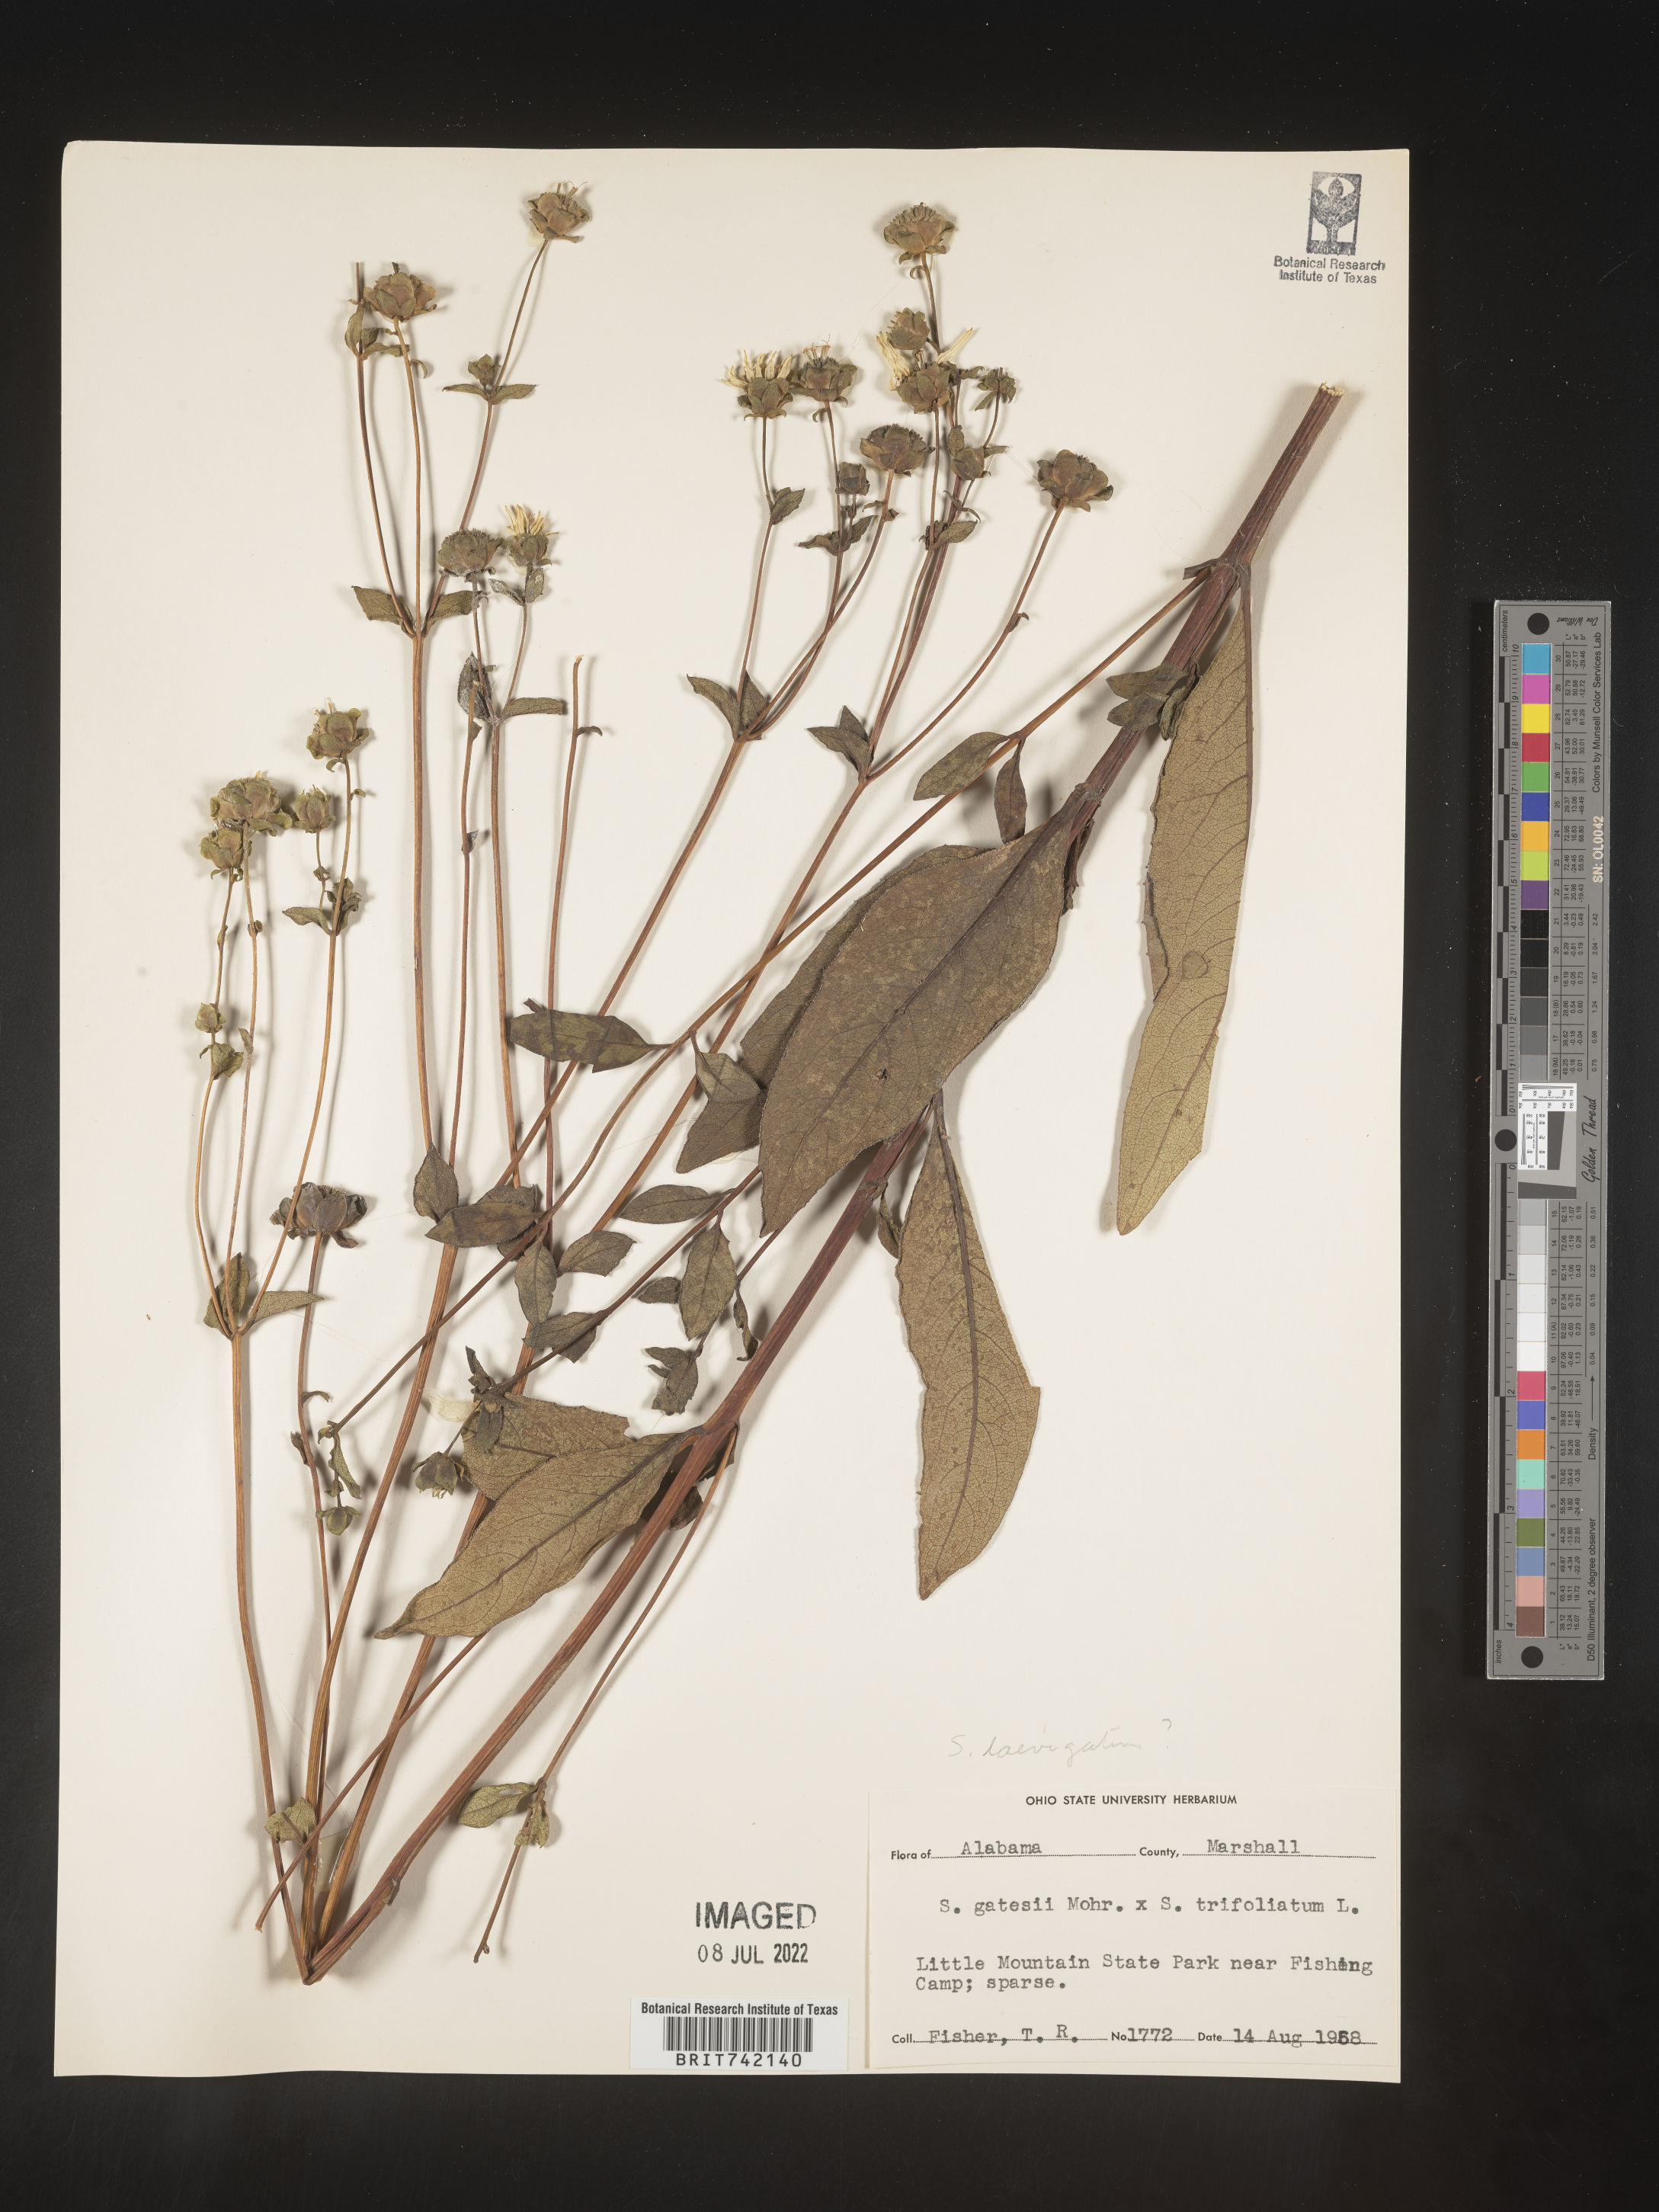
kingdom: Plantae
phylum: Tracheophyta
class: Magnoliopsida
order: Asterales
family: Asteraceae
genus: Silphium
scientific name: Silphium glabrum
